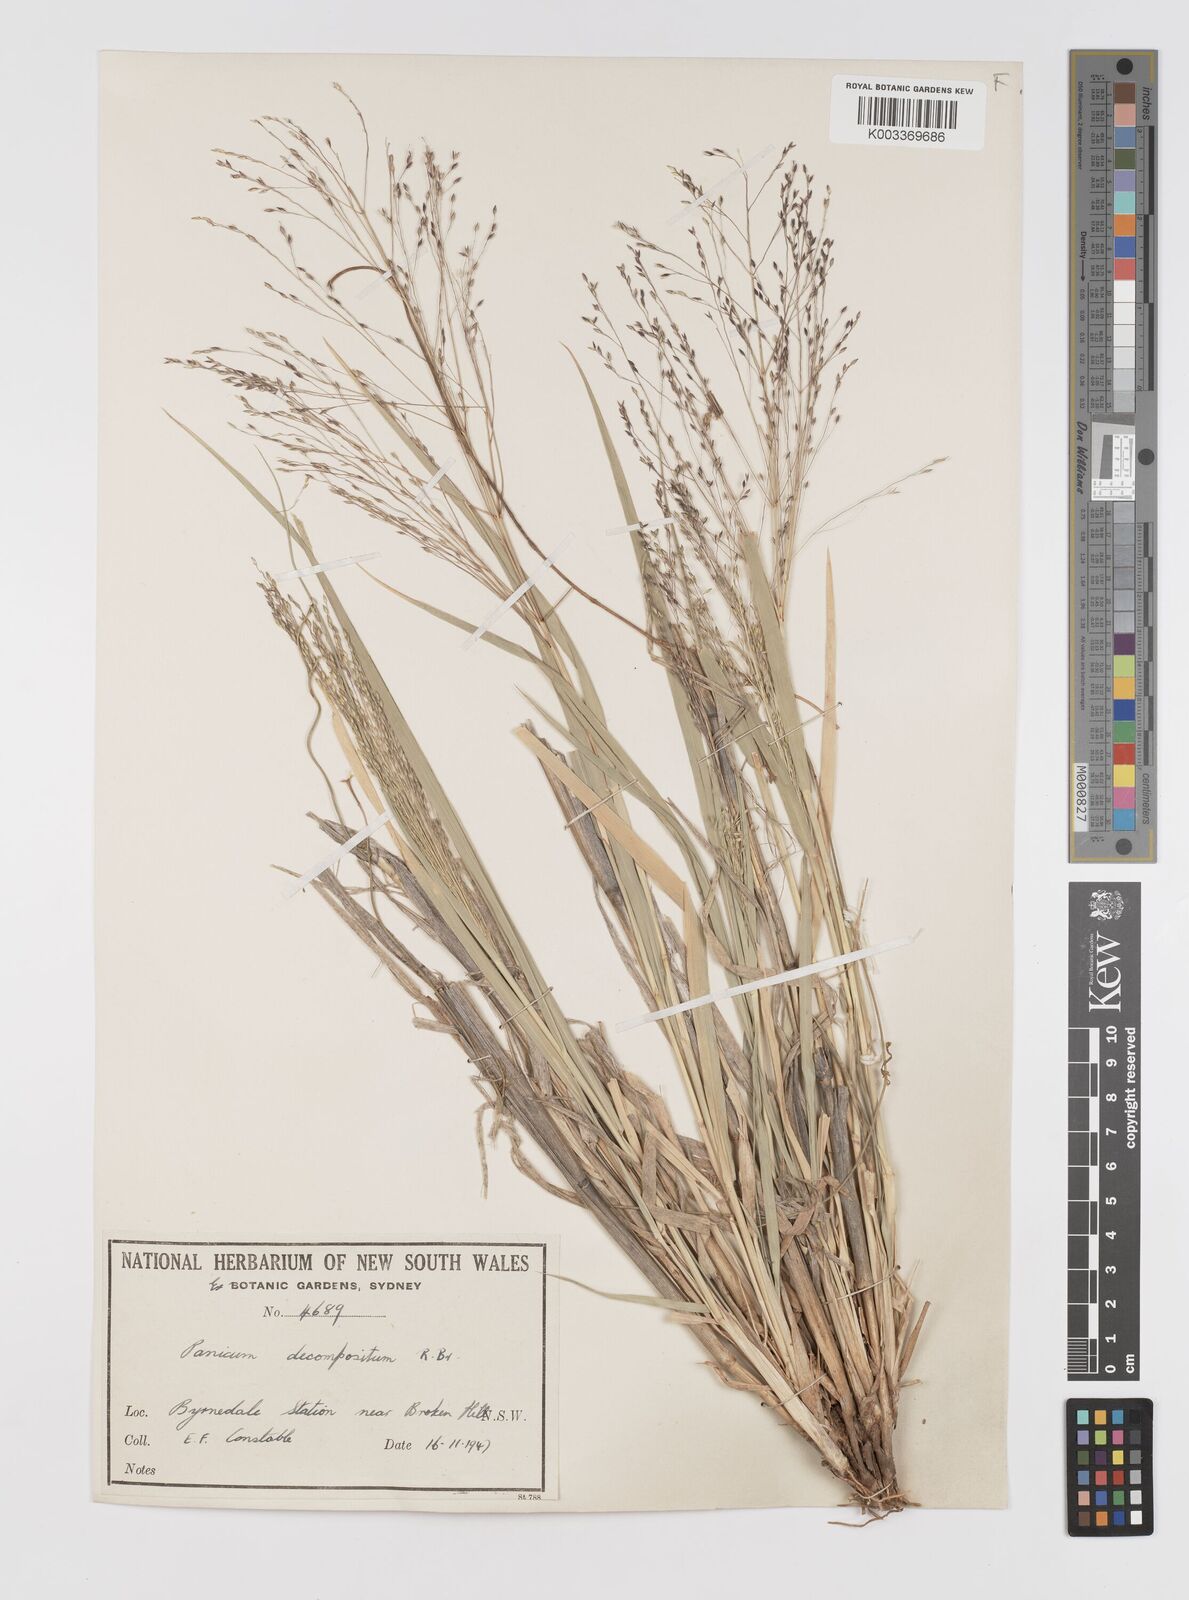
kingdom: Plantae
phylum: Tracheophyta
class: Liliopsida
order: Poales
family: Poaceae
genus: Panicum
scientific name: Panicum decompositum
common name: Australian millet
